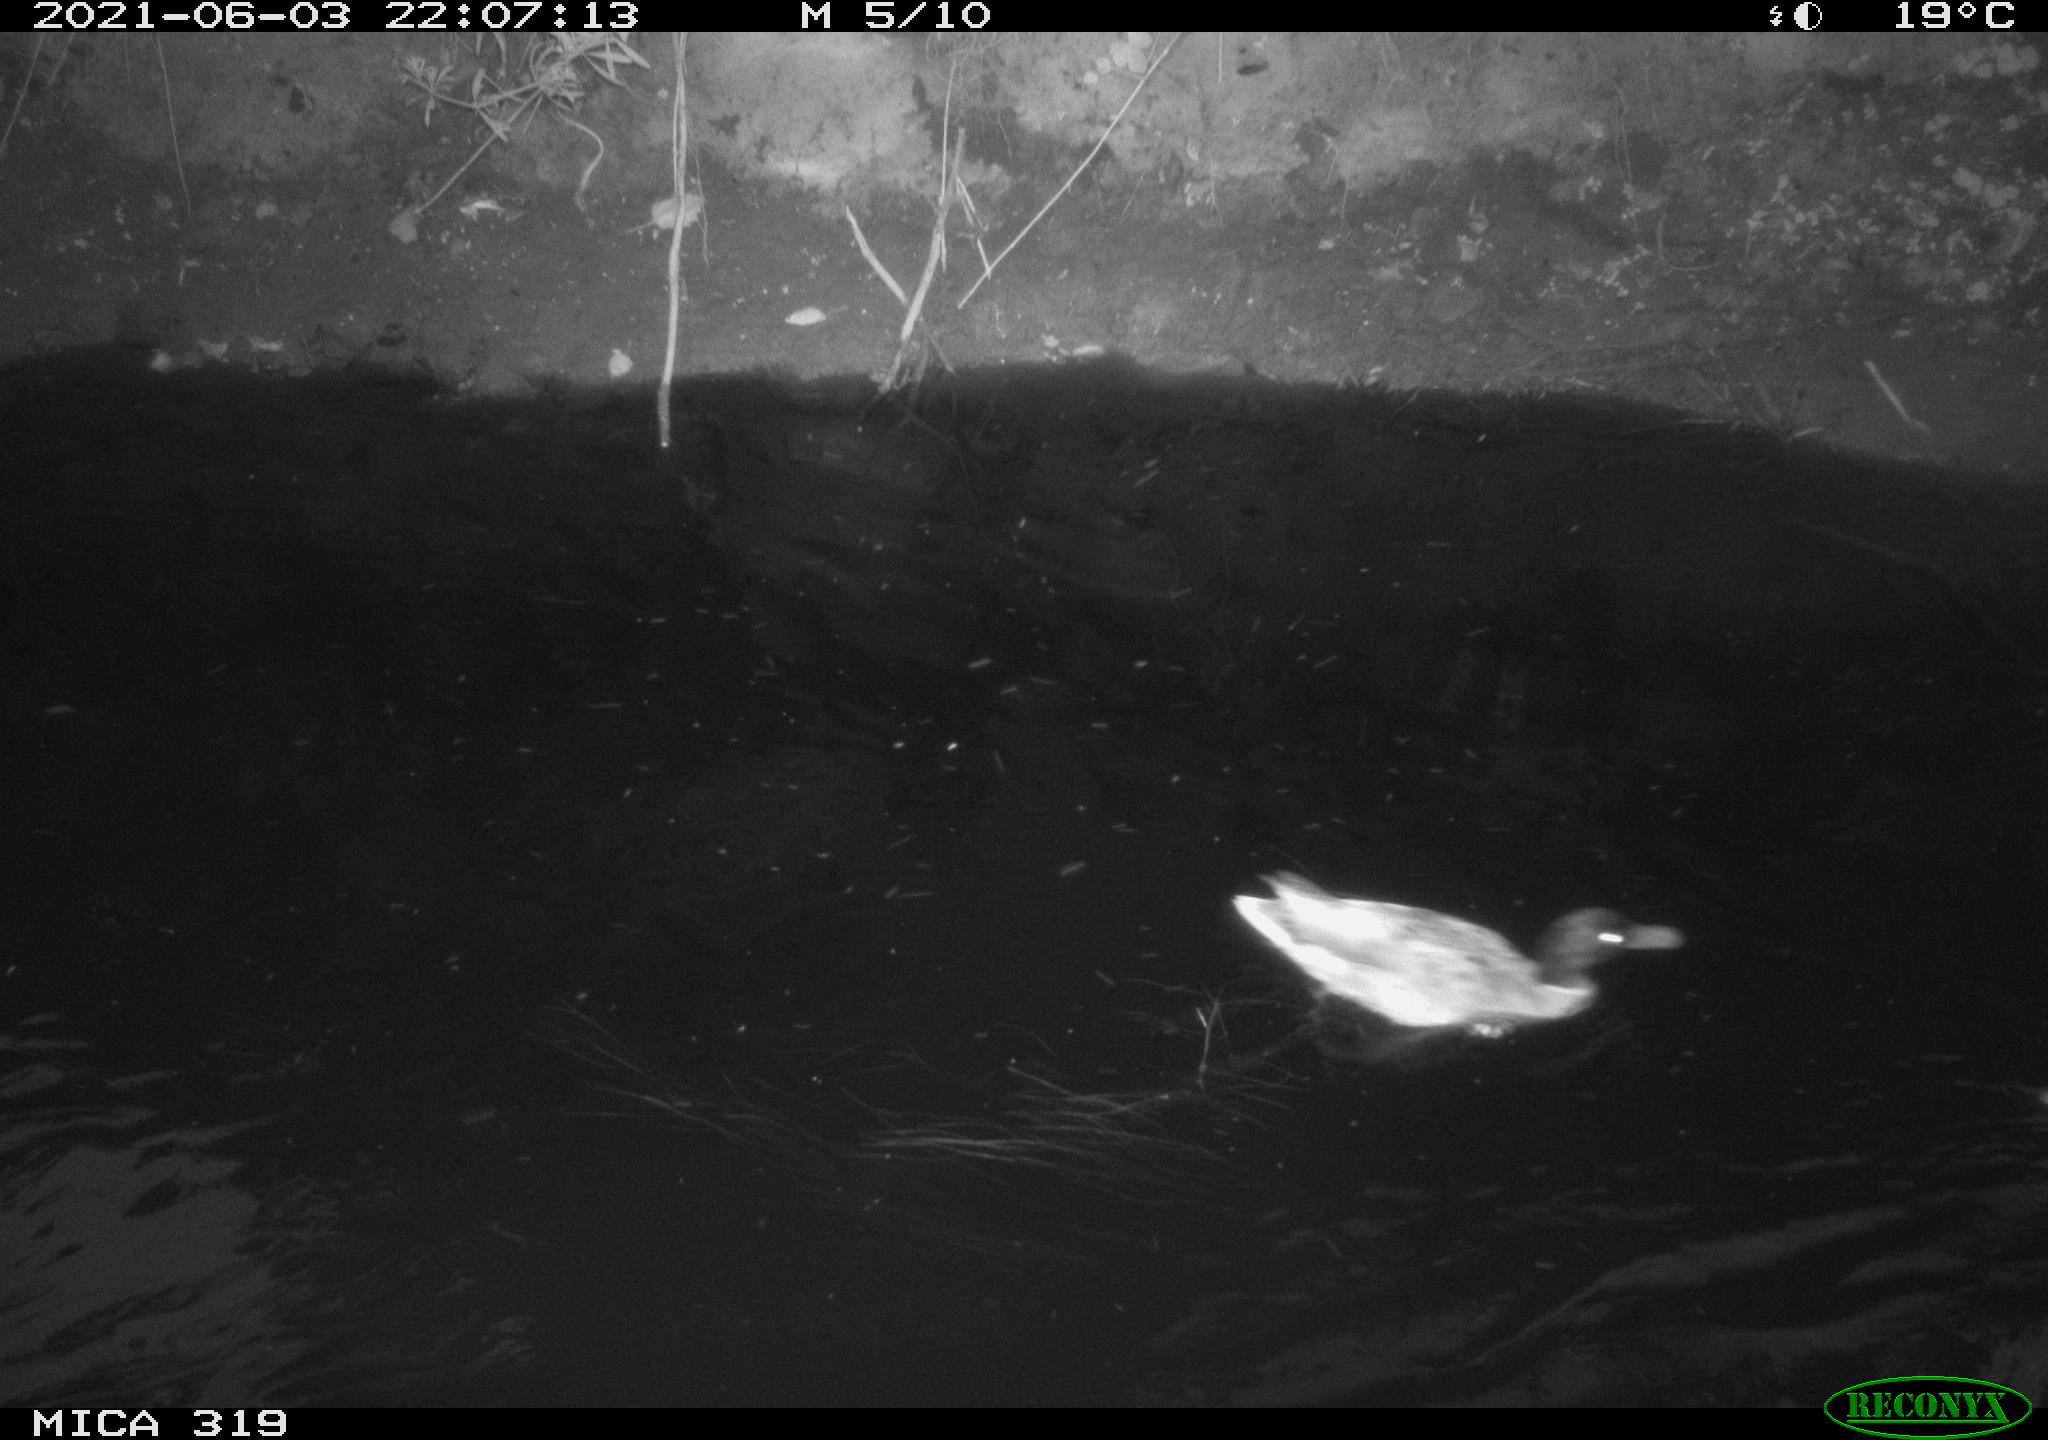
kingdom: Animalia
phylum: Chordata
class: Aves
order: Anseriformes
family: Anatidae
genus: Anas
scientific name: Anas platyrhynchos
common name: Mallard
